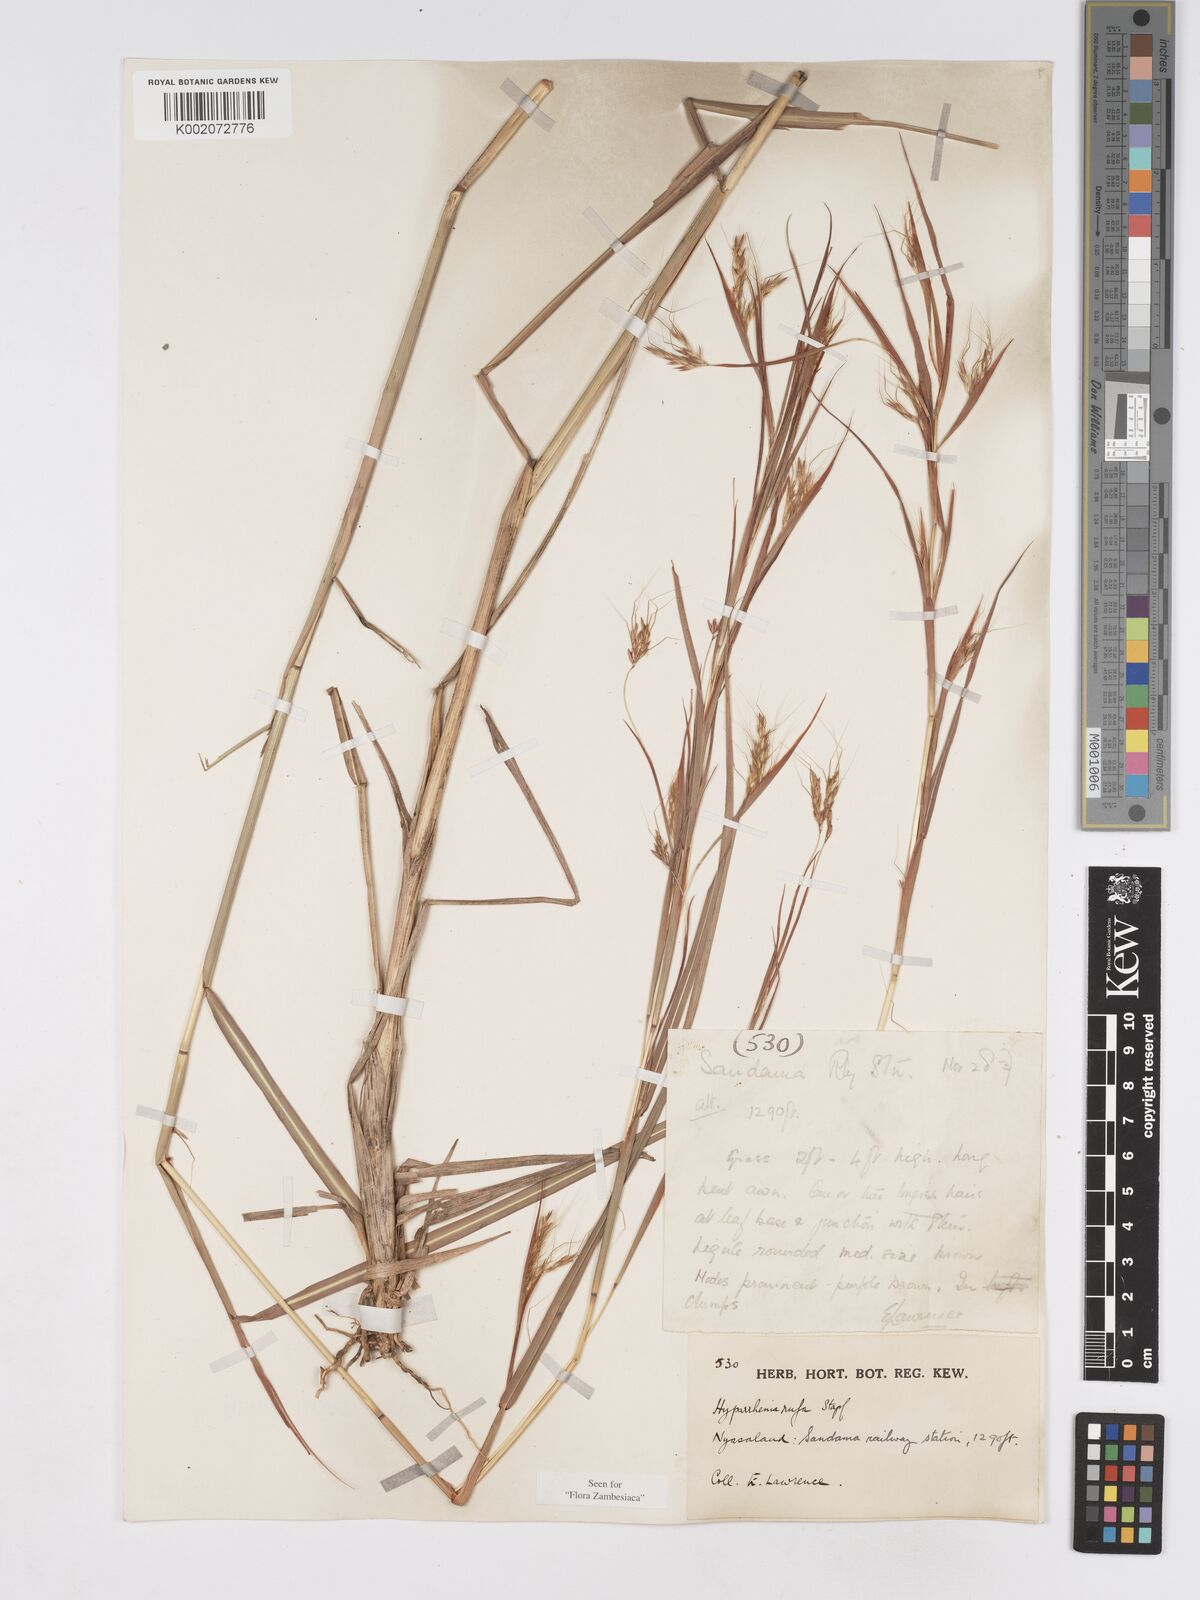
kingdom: Plantae
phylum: Tracheophyta
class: Liliopsida
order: Poales
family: Poaceae
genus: Hyparrhenia
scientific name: Hyparrhenia rufa
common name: Jaraguagrass
